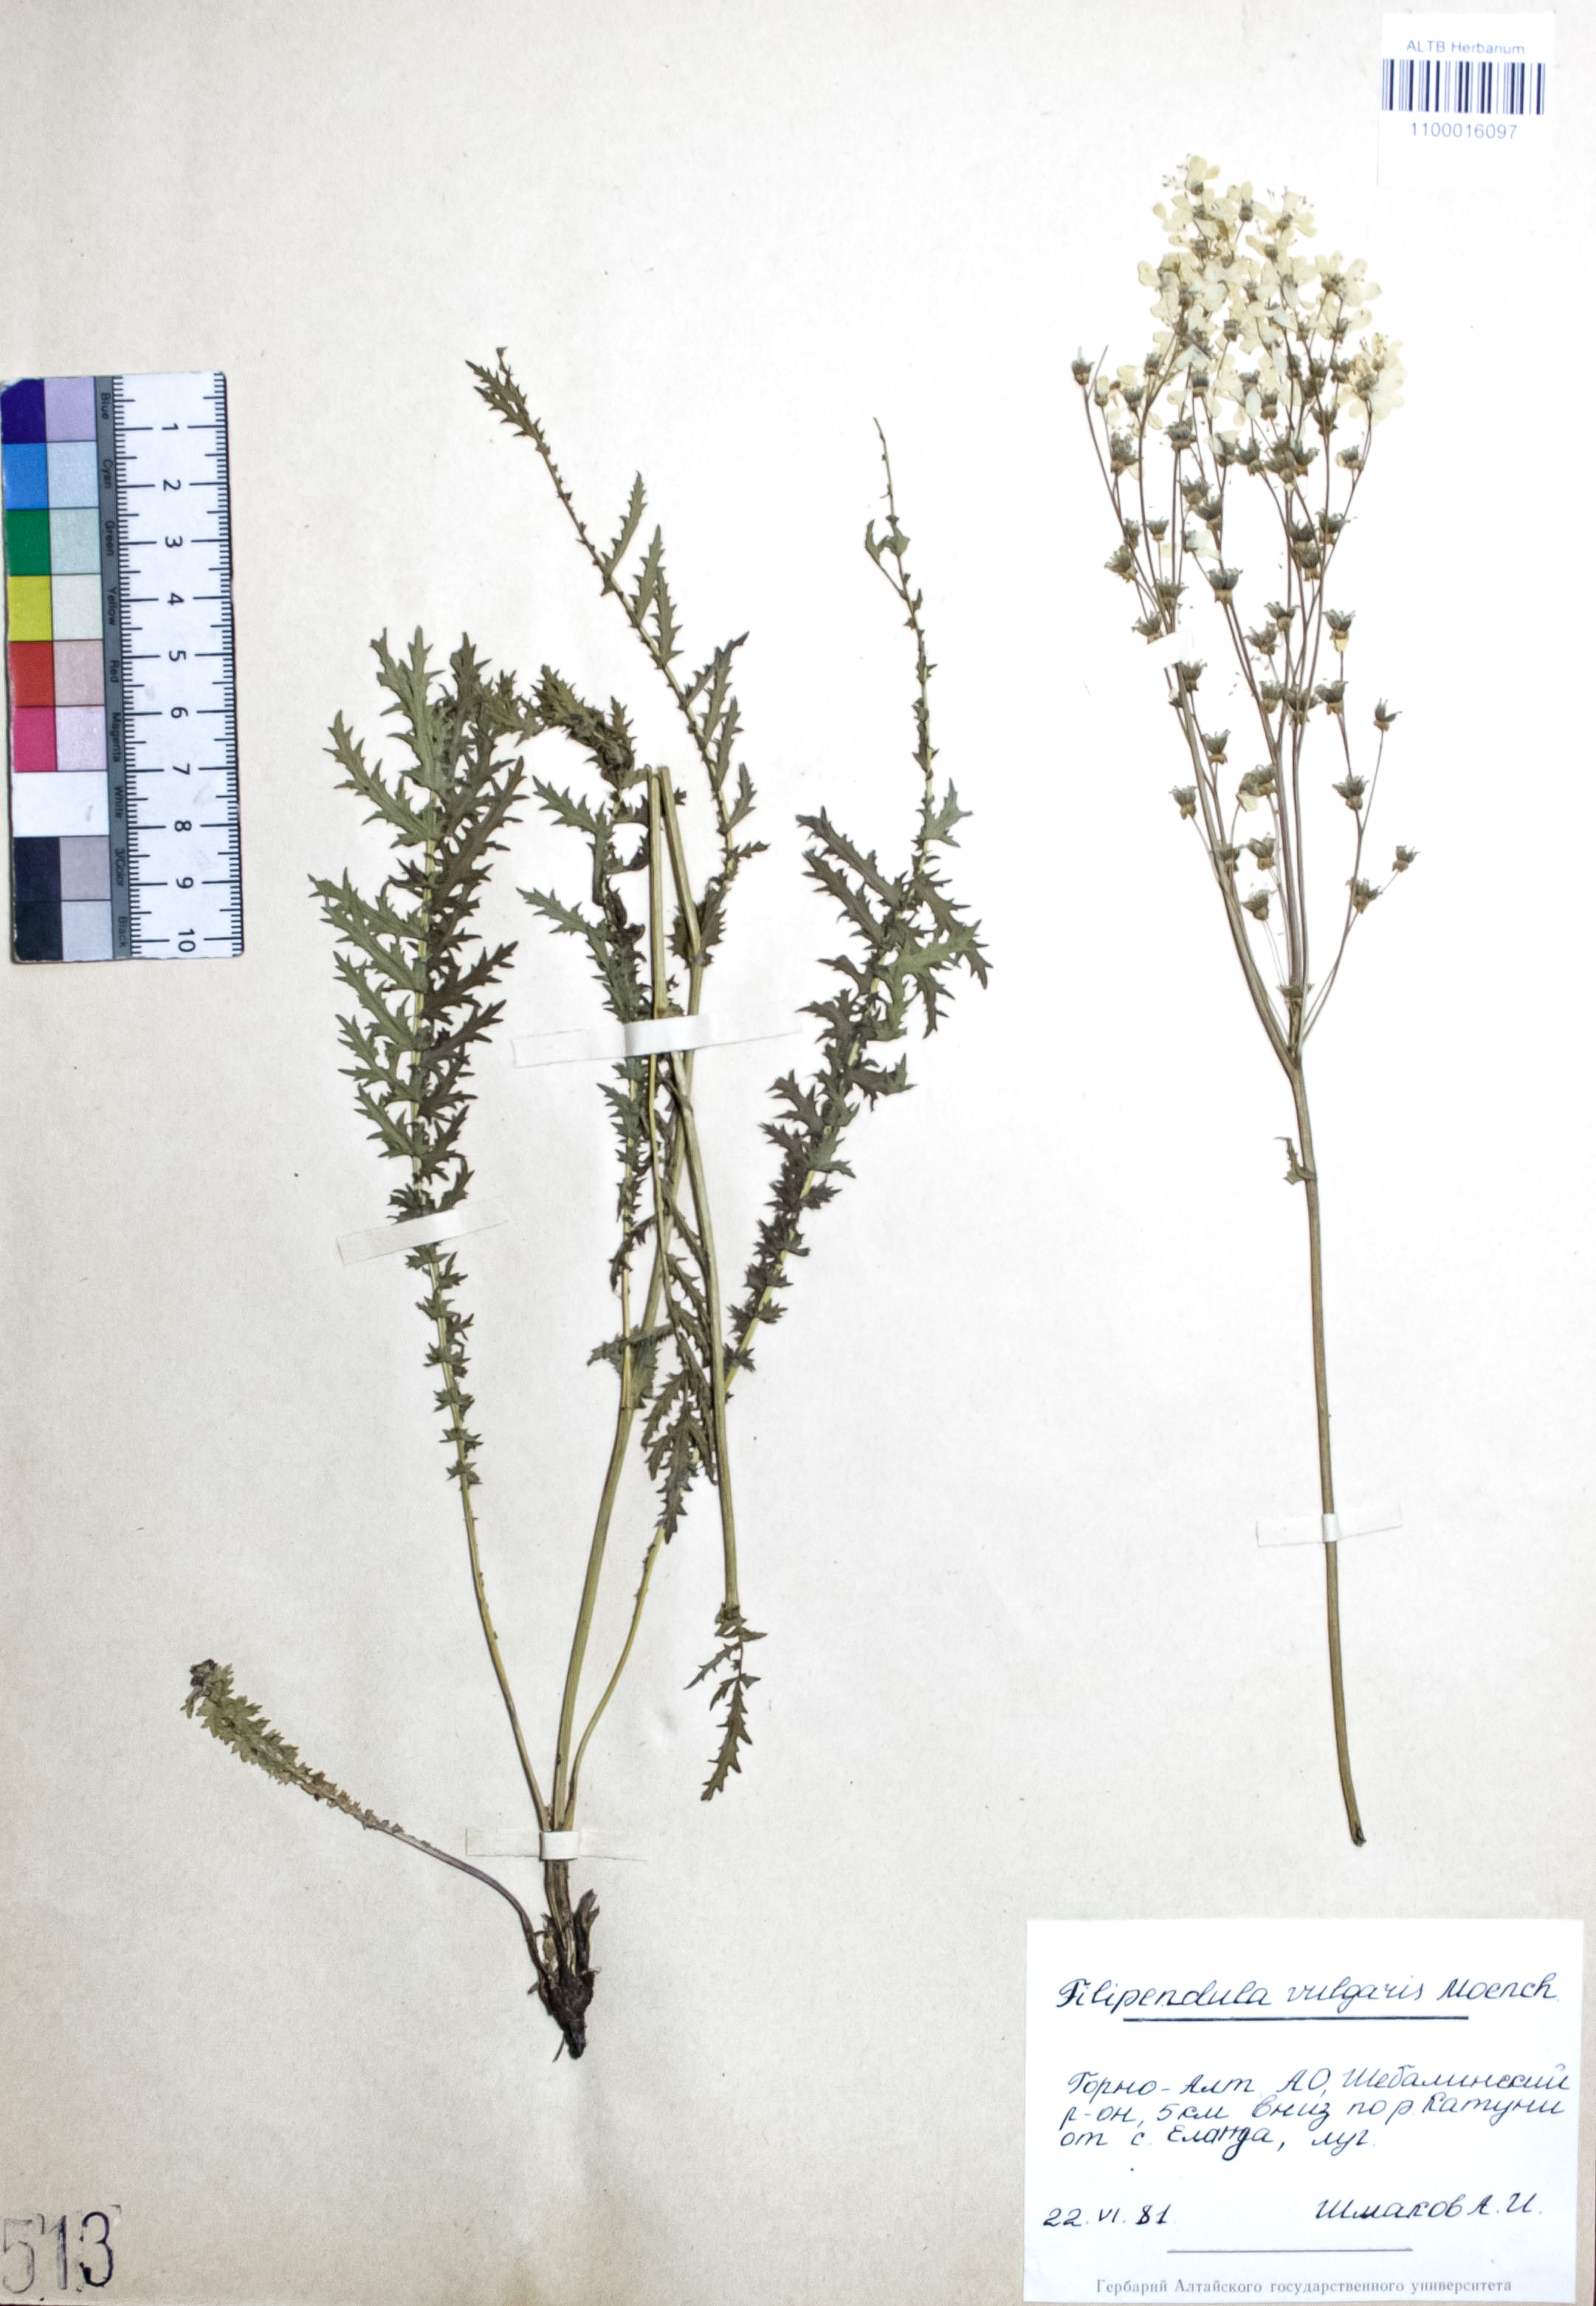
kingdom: Plantae
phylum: Tracheophyta
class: Magnoliopsida
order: Rosales
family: Rosaceae
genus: Filipendula
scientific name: Filipendula vulgaris
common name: Dropwort
